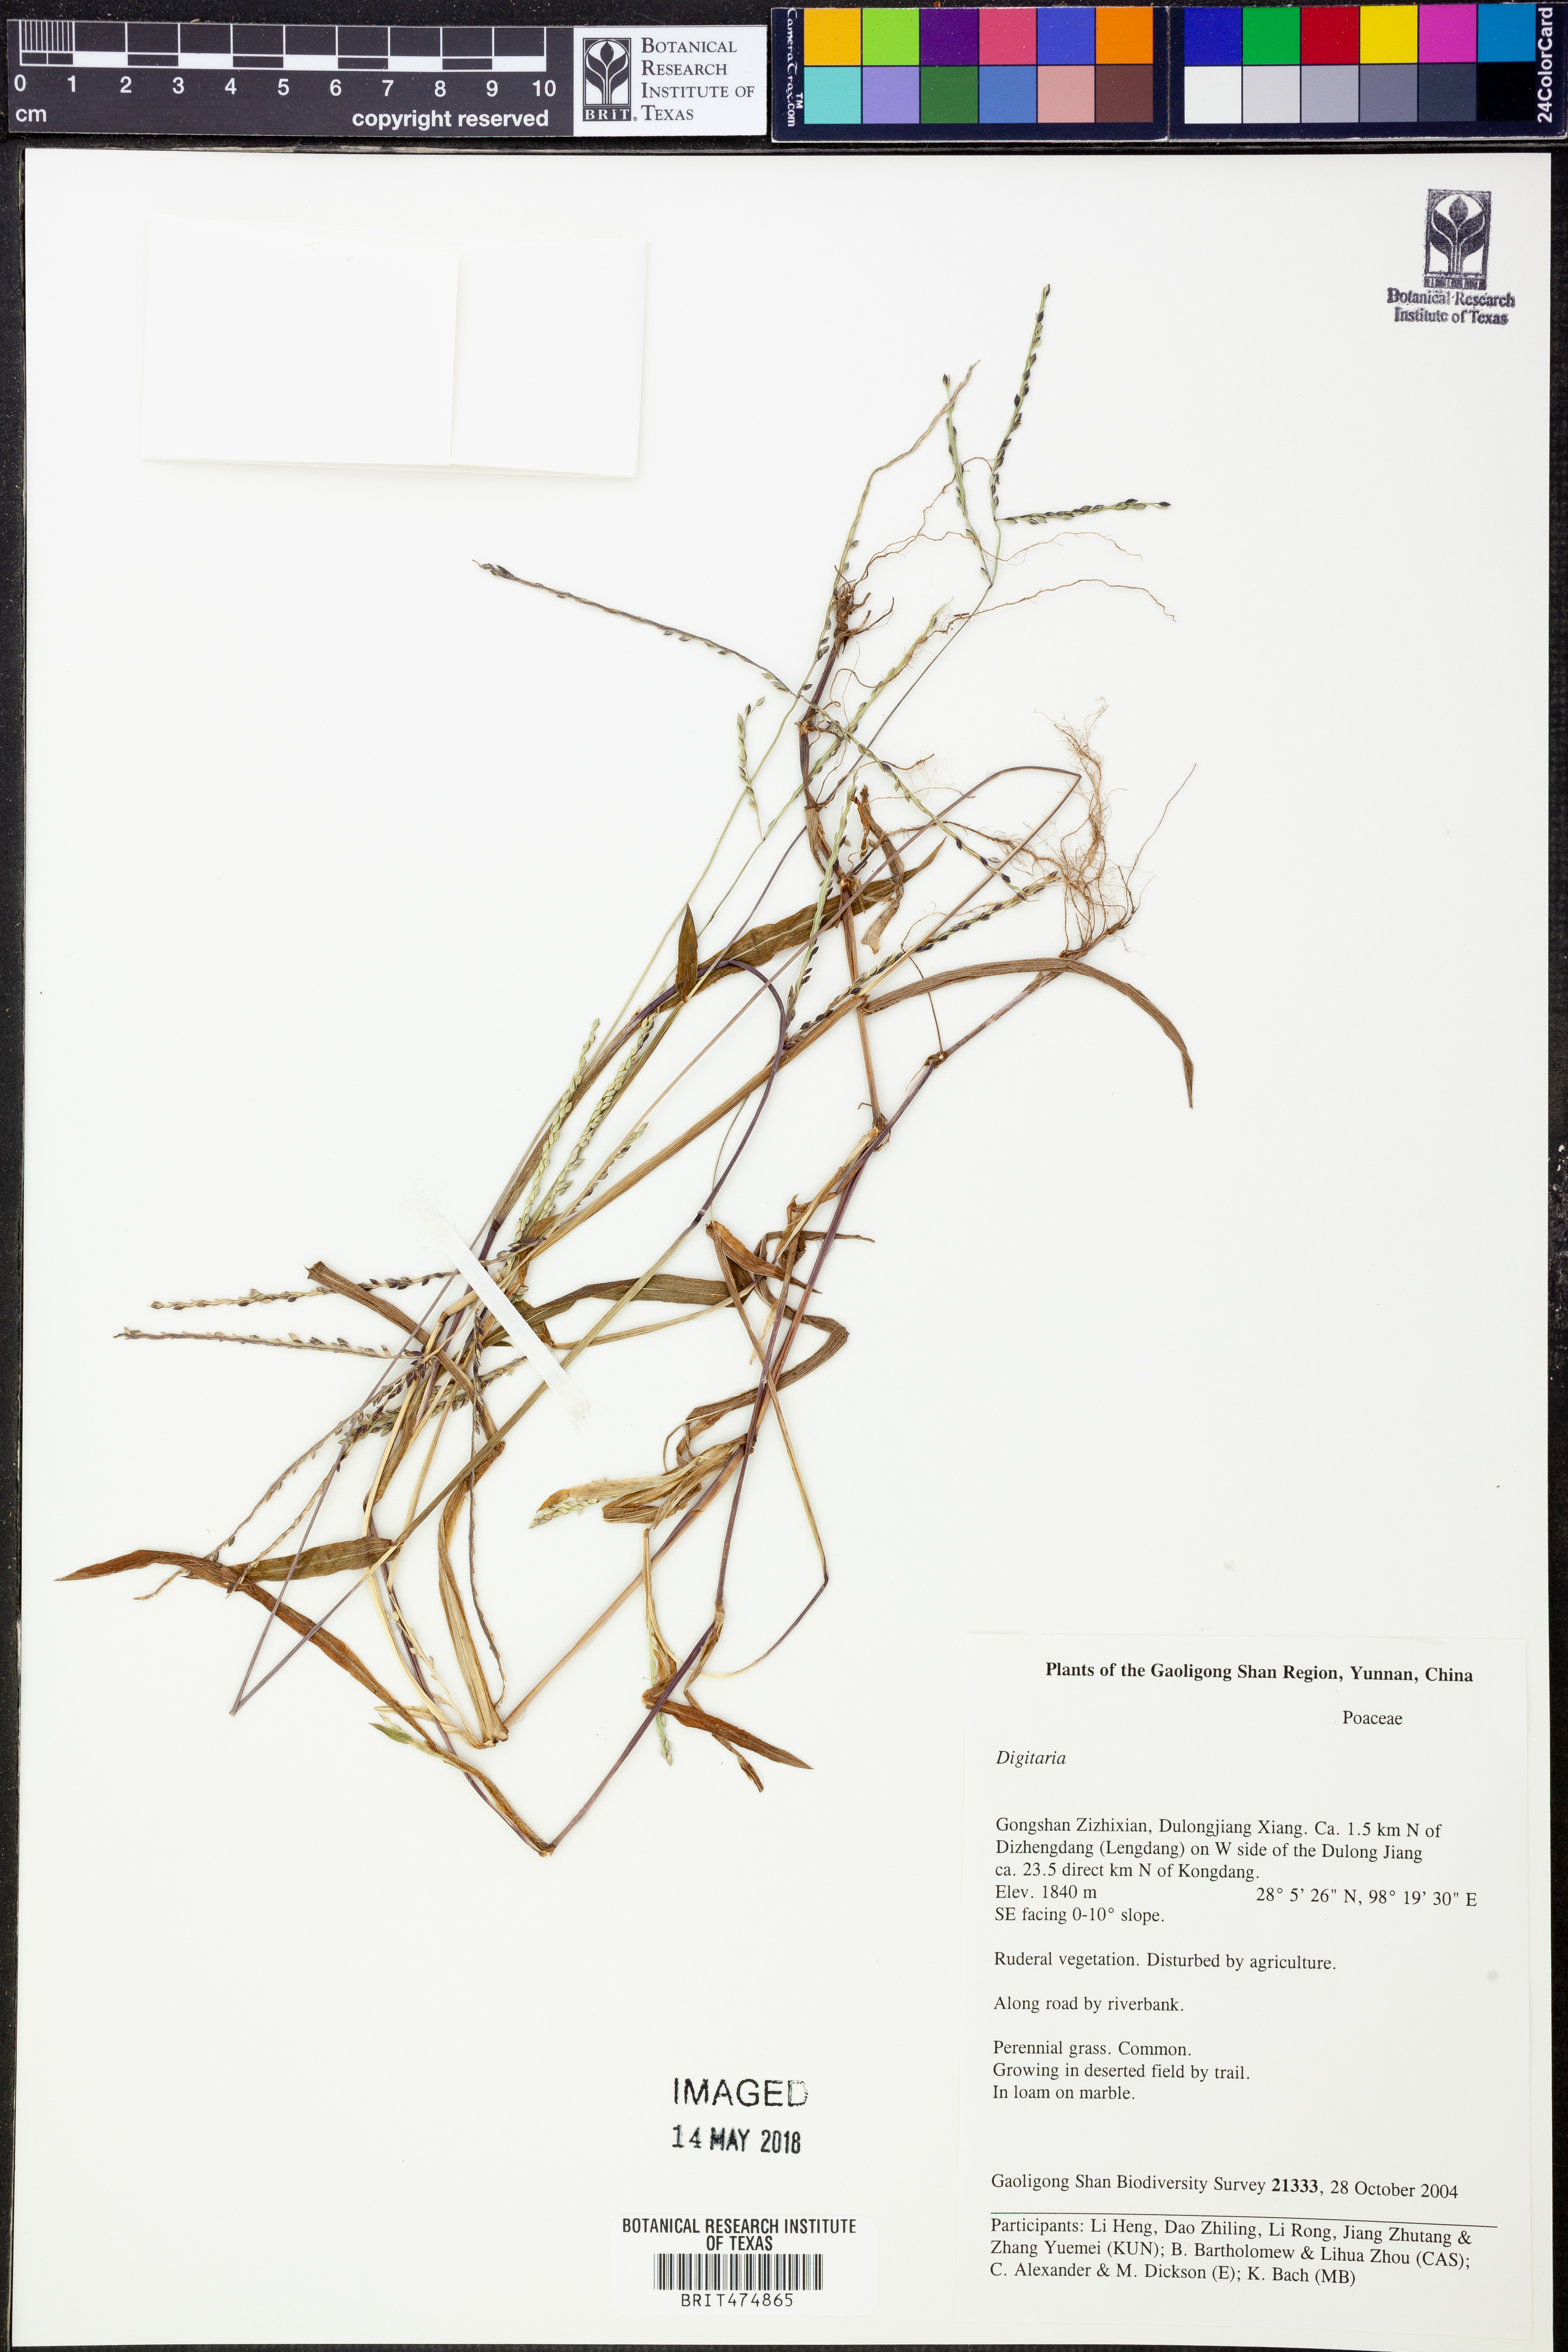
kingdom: Plantae
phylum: Tracheophyta
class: Liliopsida
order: Poales
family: Poaceae
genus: Digitaria
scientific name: Digitaria
